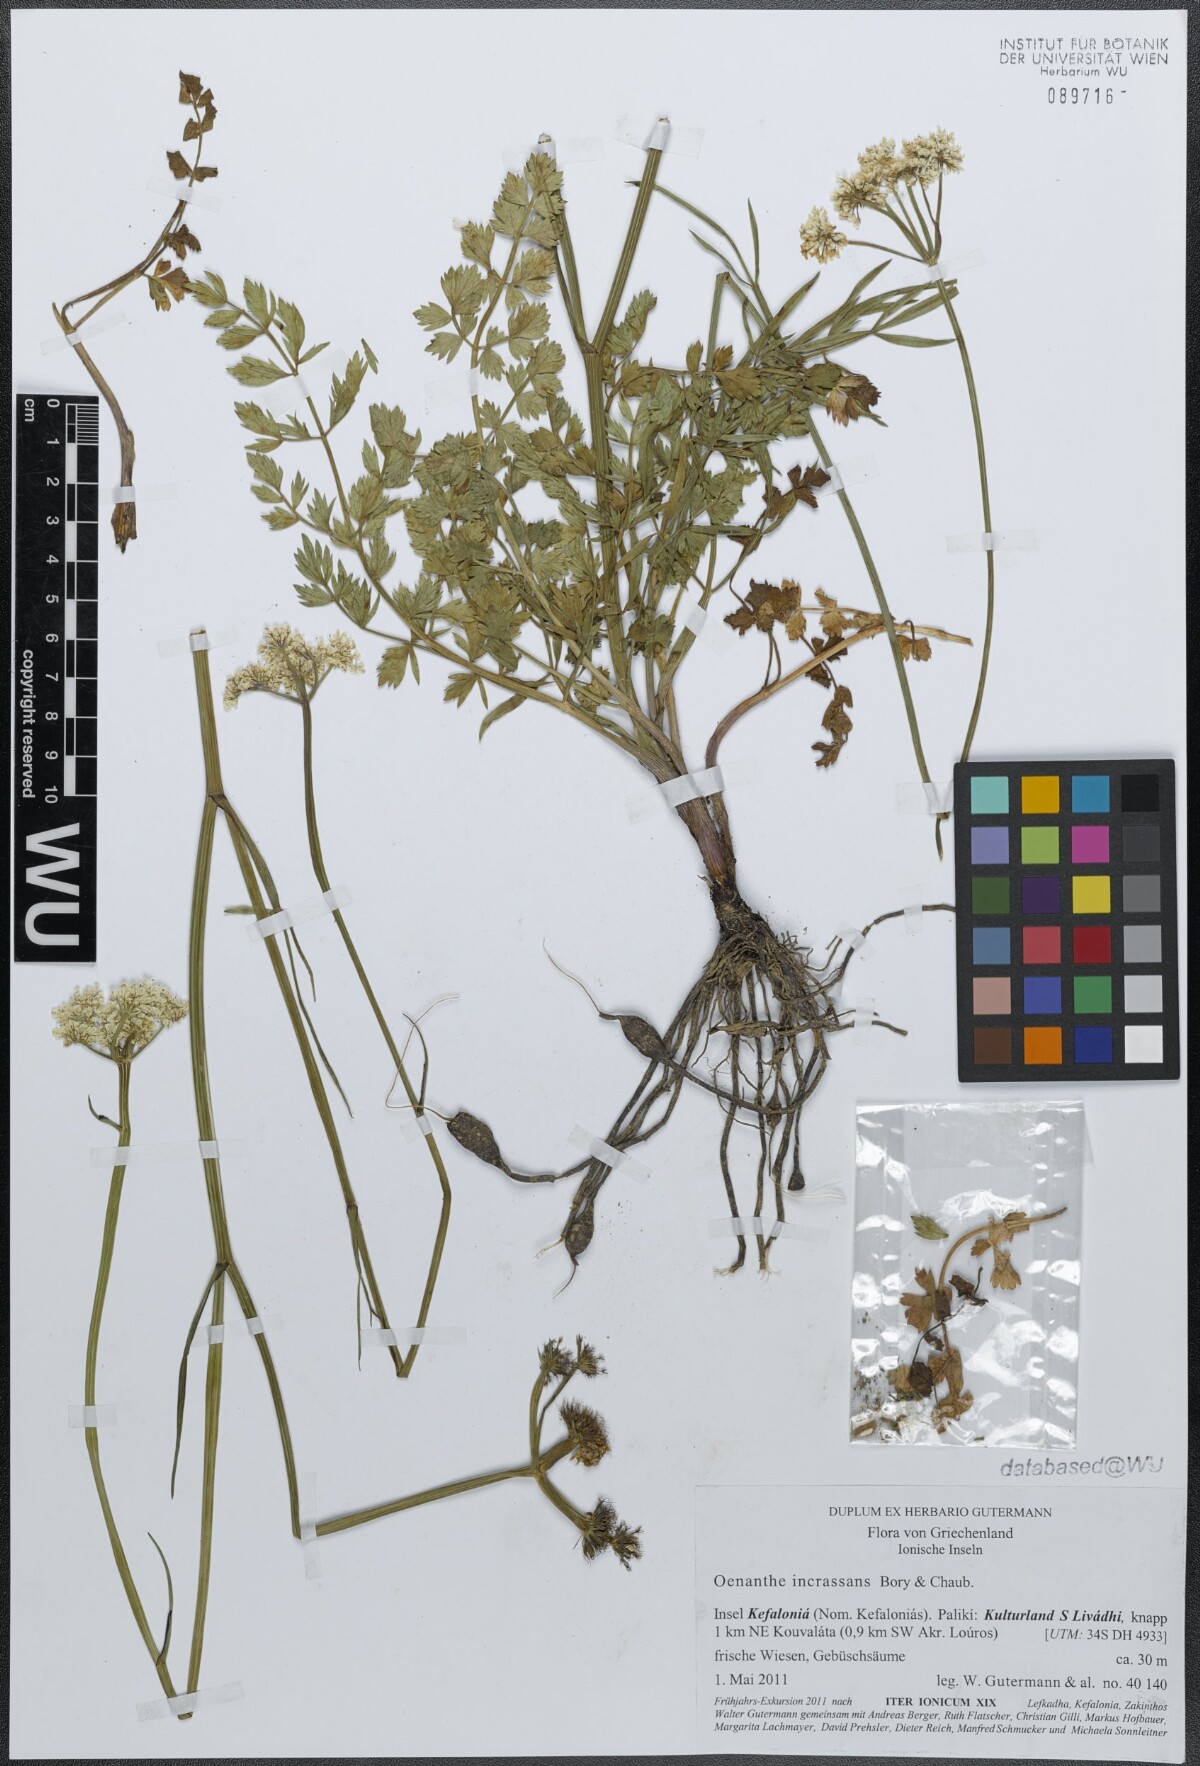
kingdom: Plantae
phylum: Tracheophyta
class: Magnoliopsida
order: Apiales
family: Apiaceae
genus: Oenanthe
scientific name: Oenanthe pimpinelloides
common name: Corky-fruited water-dropwort
